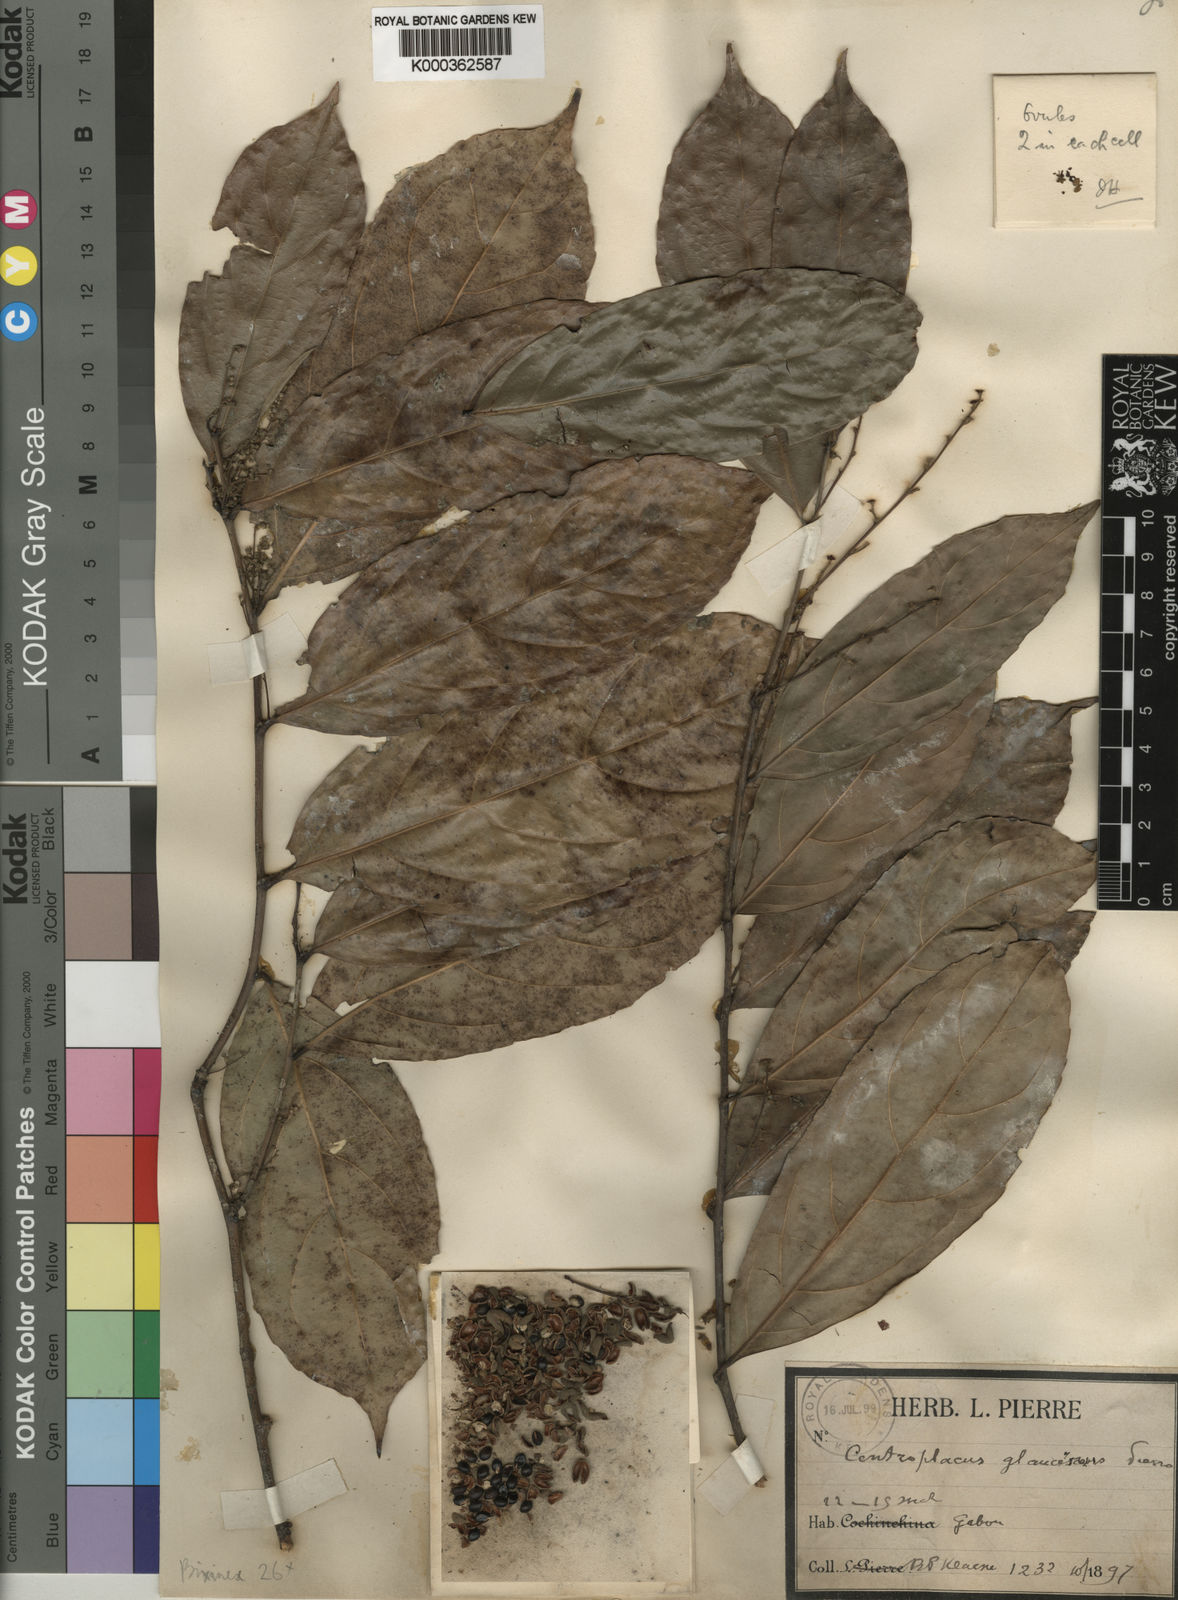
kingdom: Plantae
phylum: Tracheophyta
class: Magnoliopsida
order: Malpighiales
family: Pandaceae
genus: Panda
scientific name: Panda
